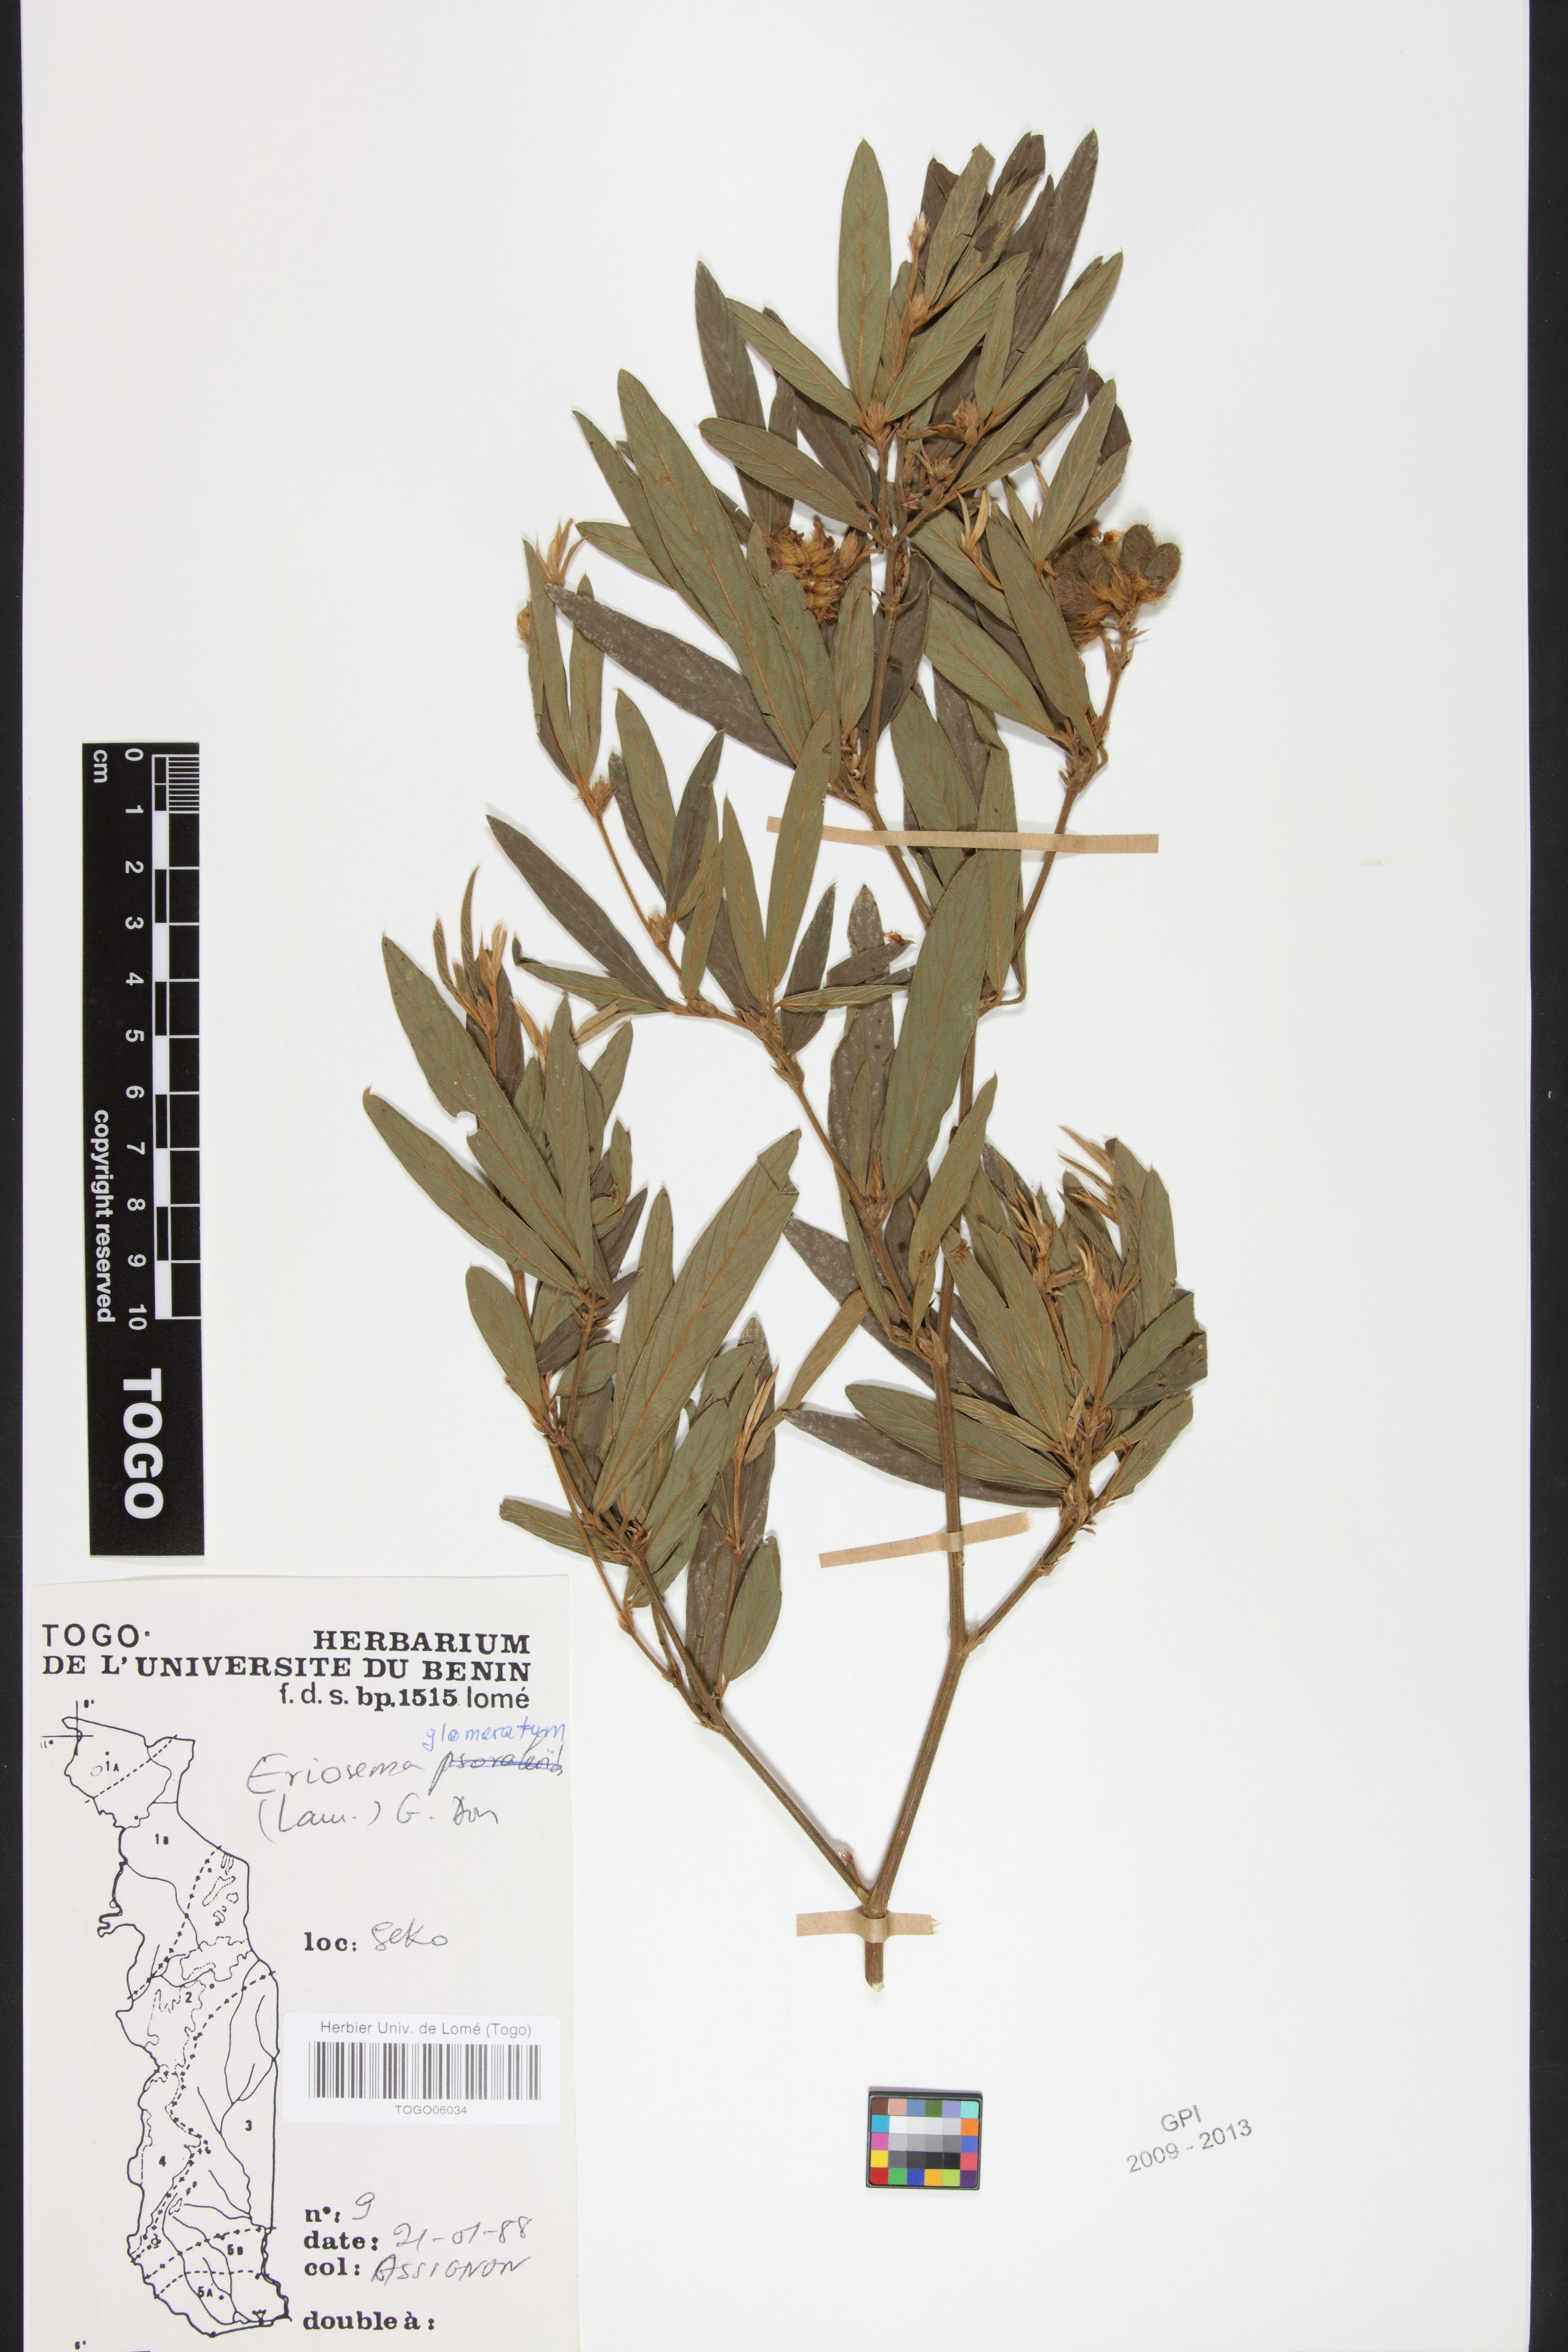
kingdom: Plantae
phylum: Tracheophyta
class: Magnoliopsida
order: Fabales
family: Fabaceae
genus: Eriosema
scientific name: Eriosema glomeratum
